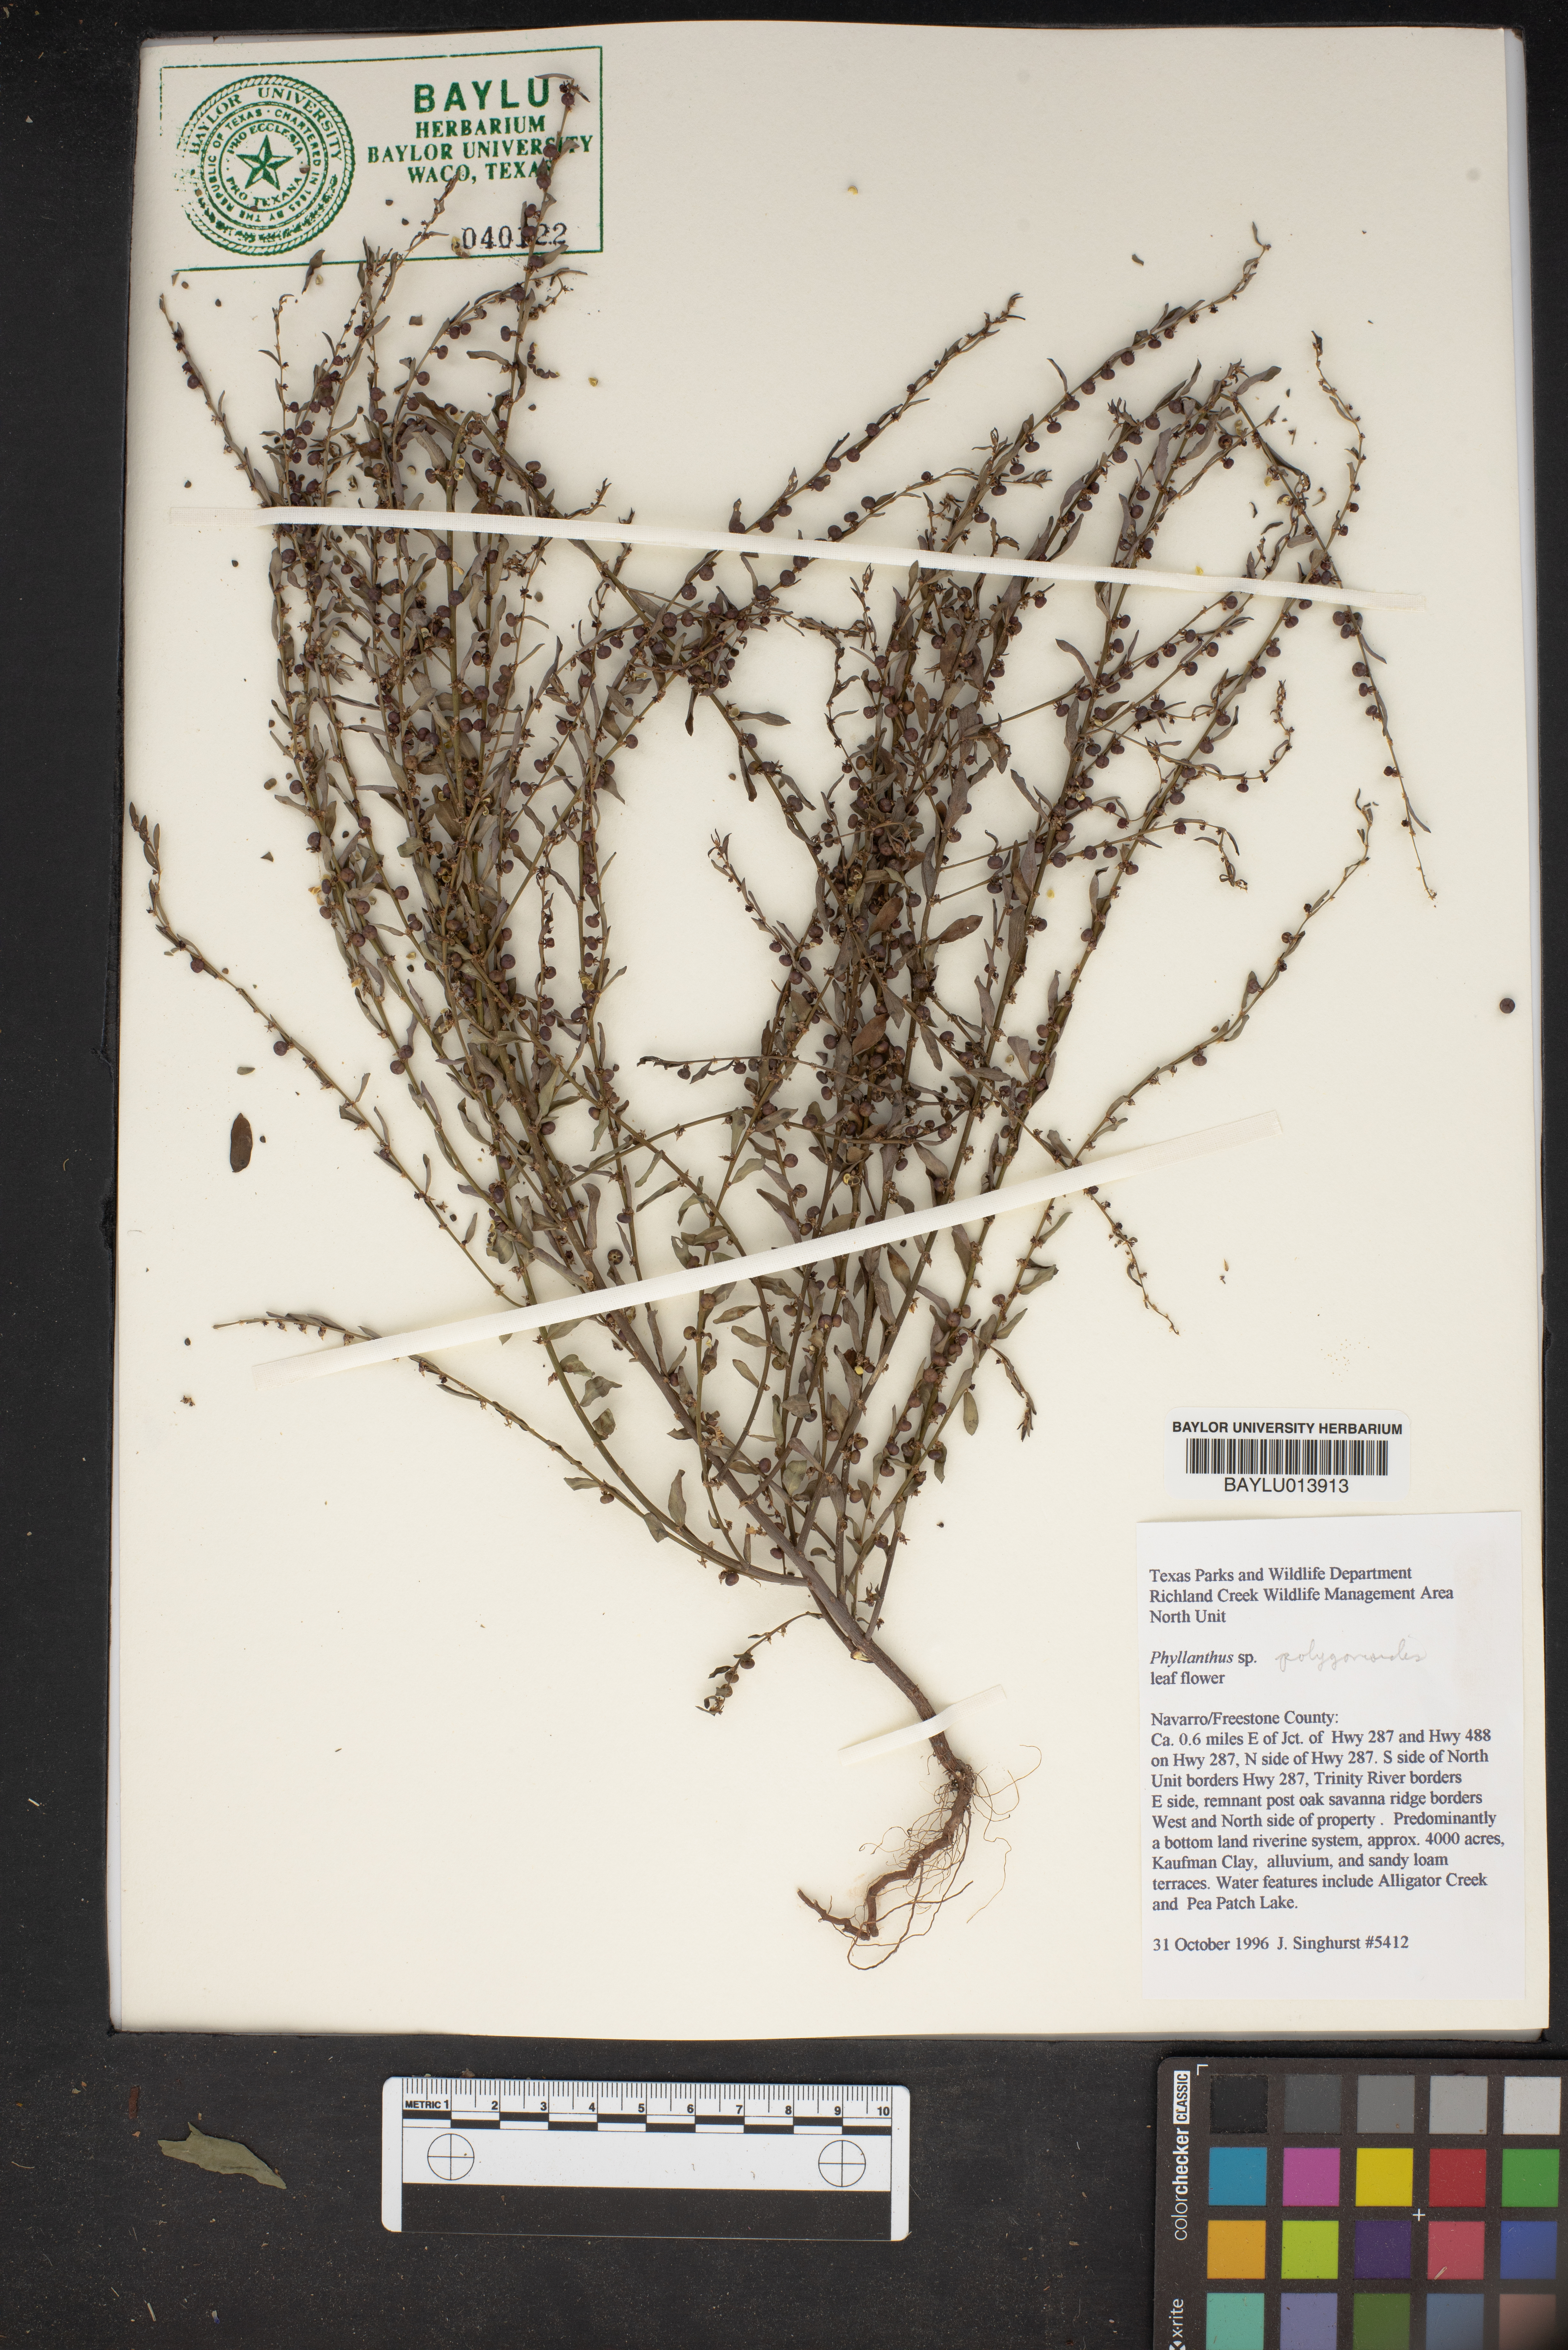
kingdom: Plantae
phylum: Tracheophyta
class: Magnoliopsida
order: Malpighiales
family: Phyllanthaceae
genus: Phyllanthus
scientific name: Phyllanthus polygonoides
